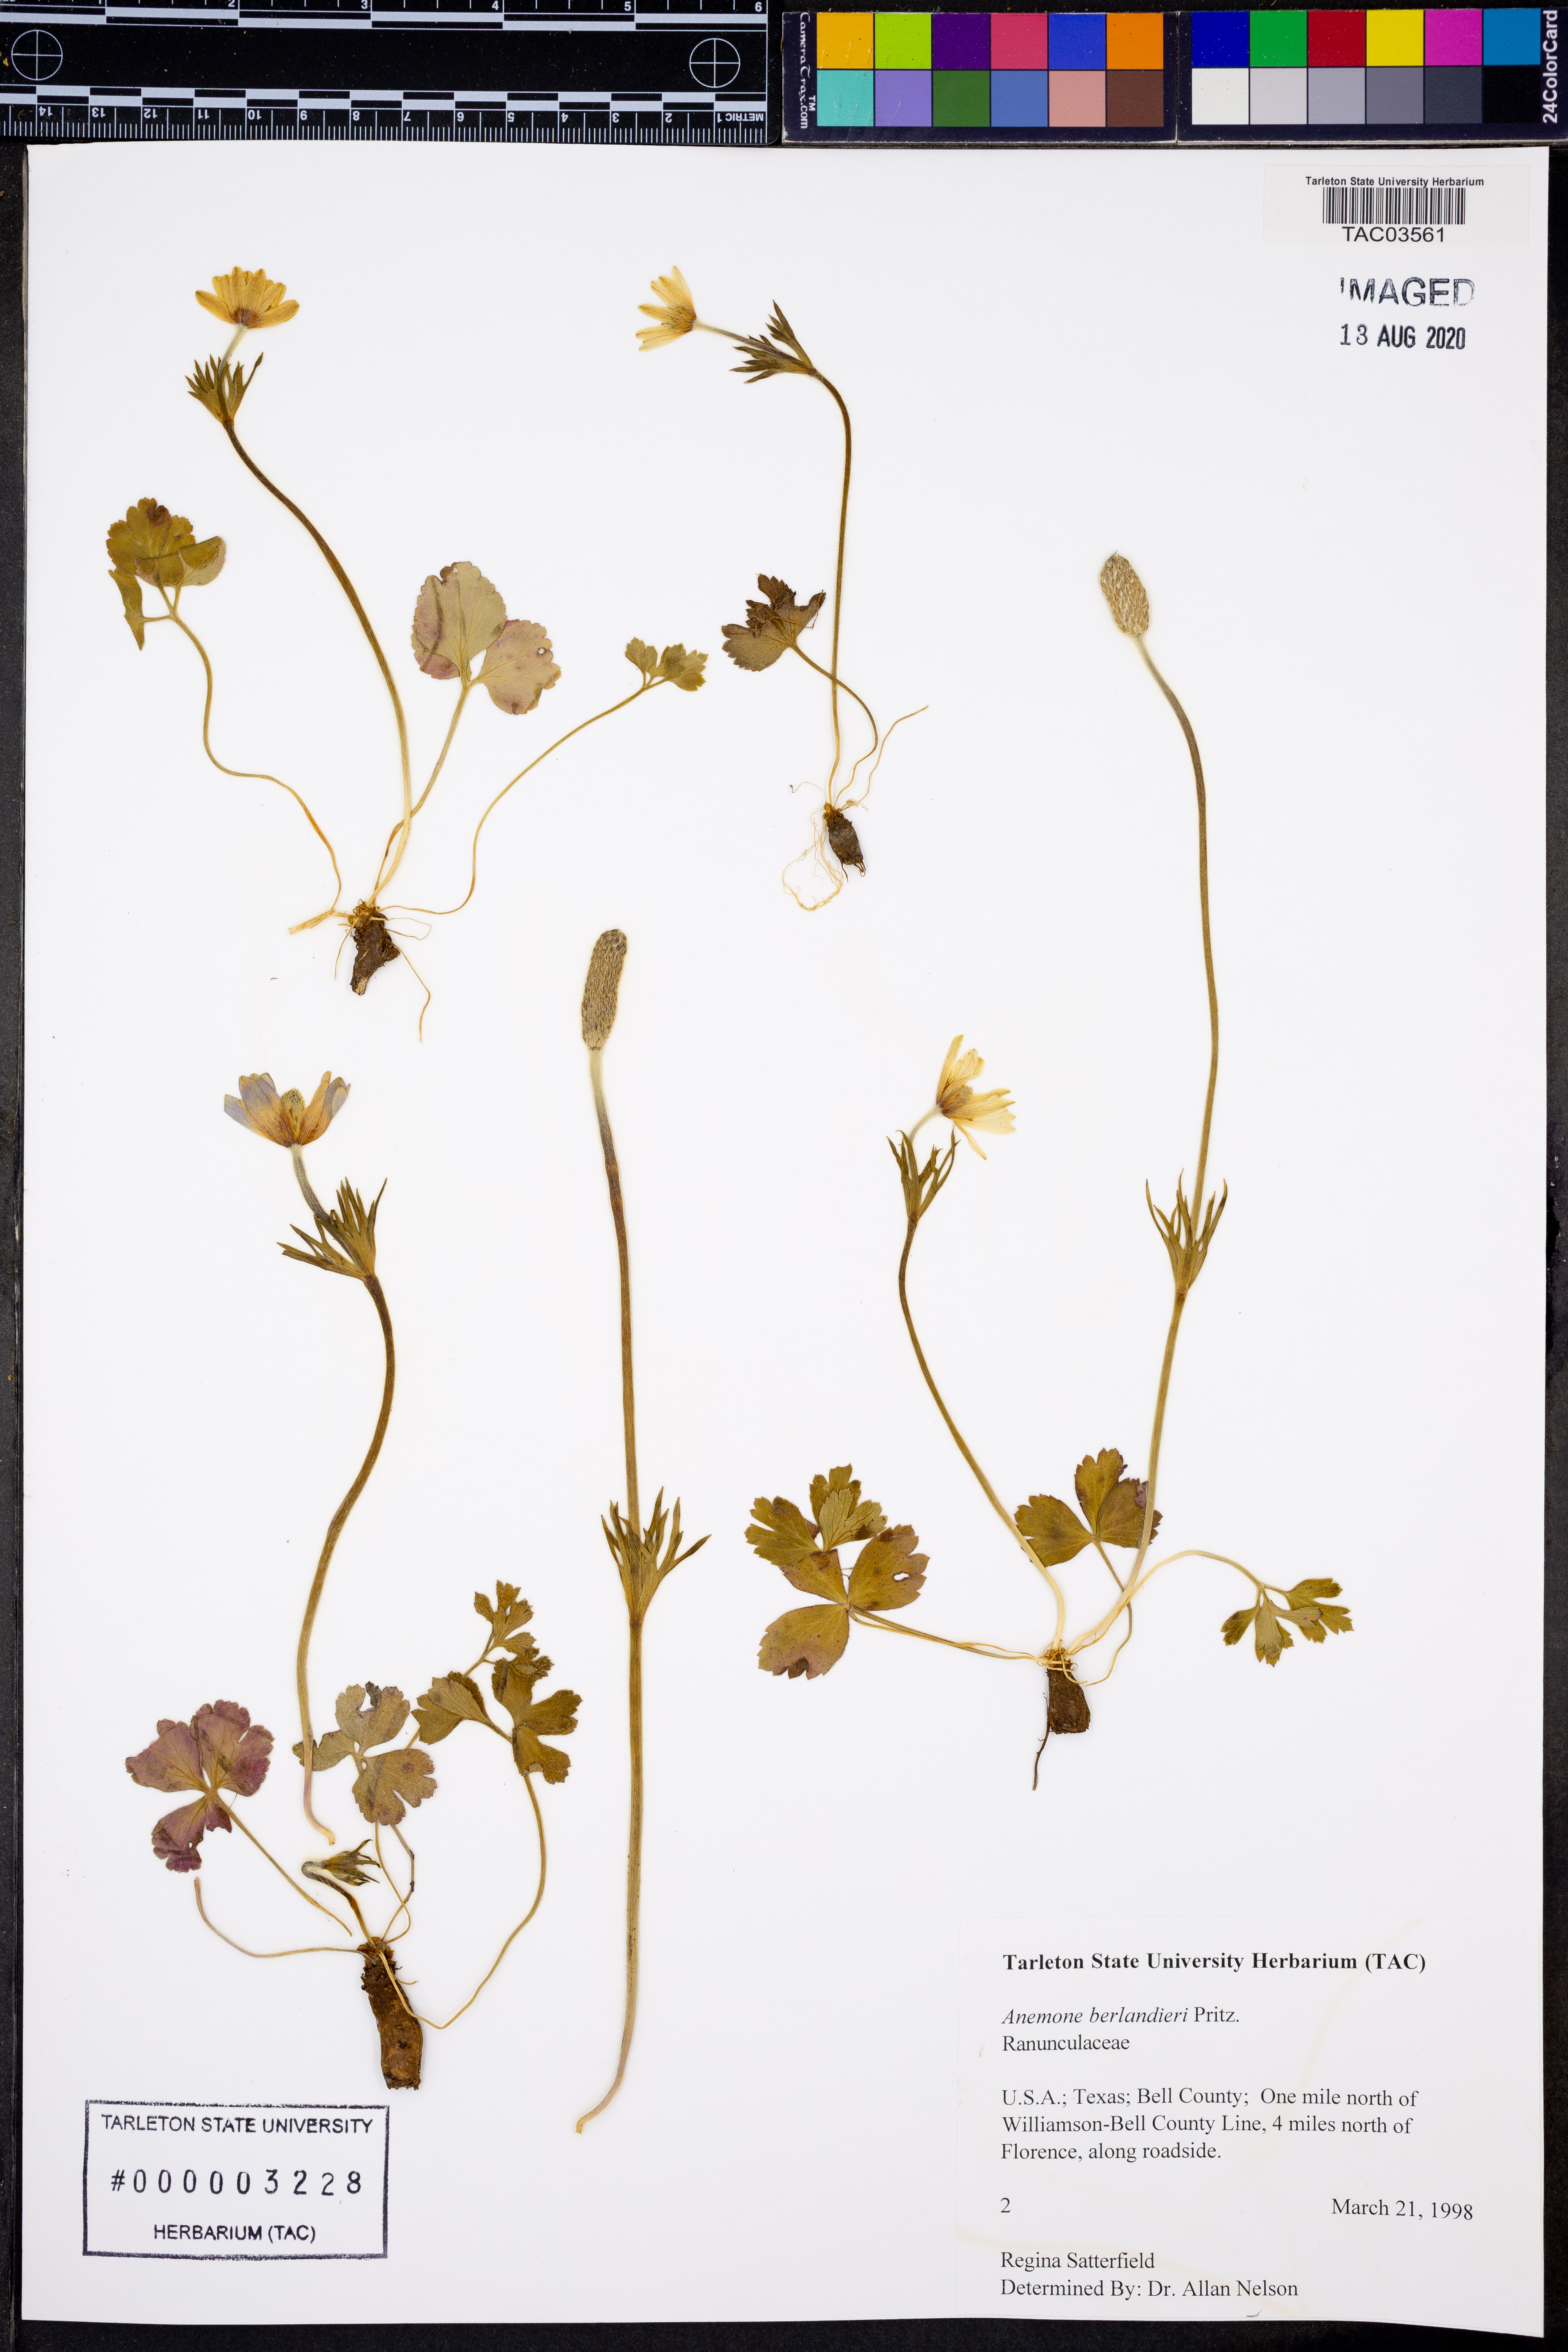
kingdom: Plantae
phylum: Tracheophyta
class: Magnoliopsida
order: Ranunculales
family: Ranunculaceae
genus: Anemone
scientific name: Anemone berlandieri
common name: Ten-petal anemone
